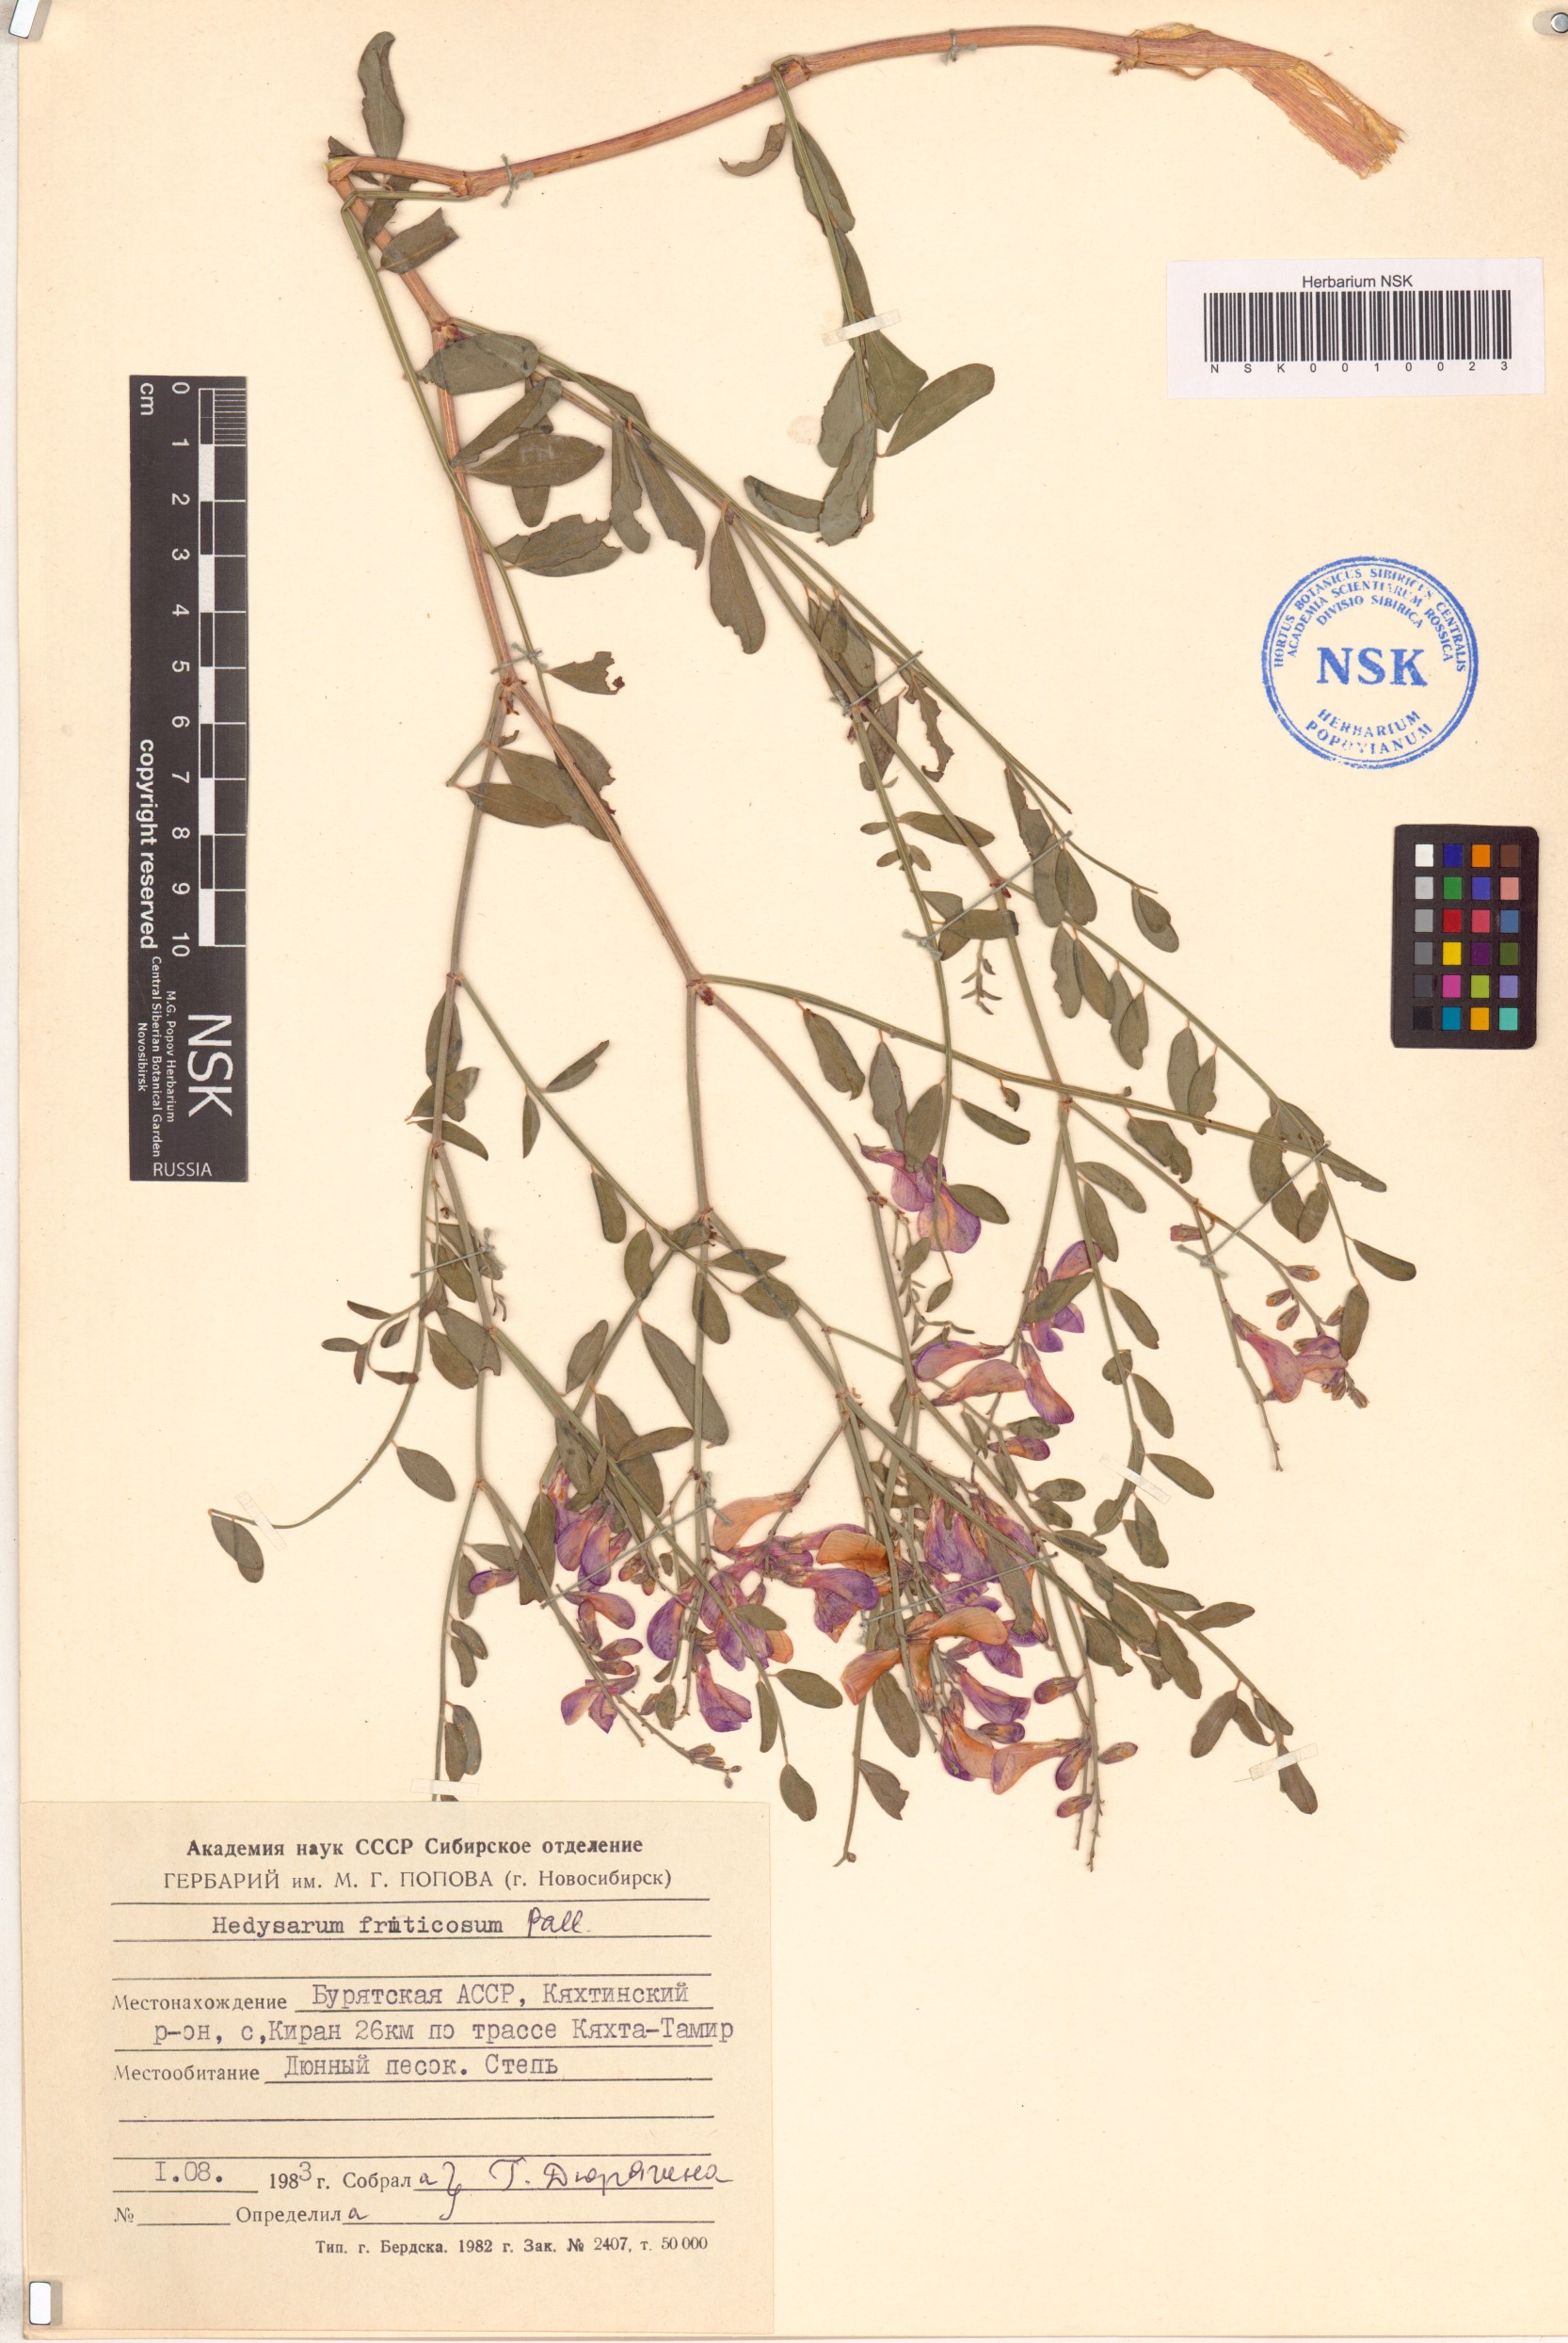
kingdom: Plantae
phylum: Tracheophyta
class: Magnoliopsida
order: Fabales
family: Fabaceae
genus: Corethrodendron
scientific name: Corethrodendron fruticosum
